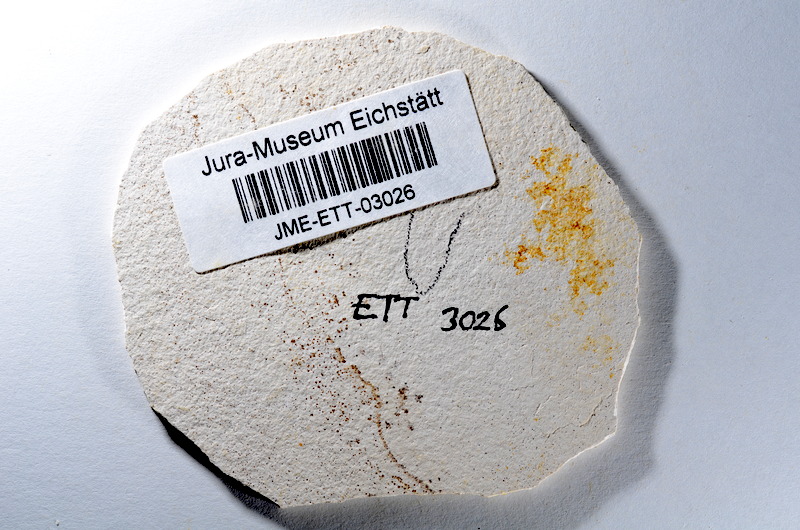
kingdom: Animalia
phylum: Chordata
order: Salmoniformes
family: Orthogonikleithridae
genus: Orthogonikleithrus
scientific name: Orthogonikleithrus hoelli
